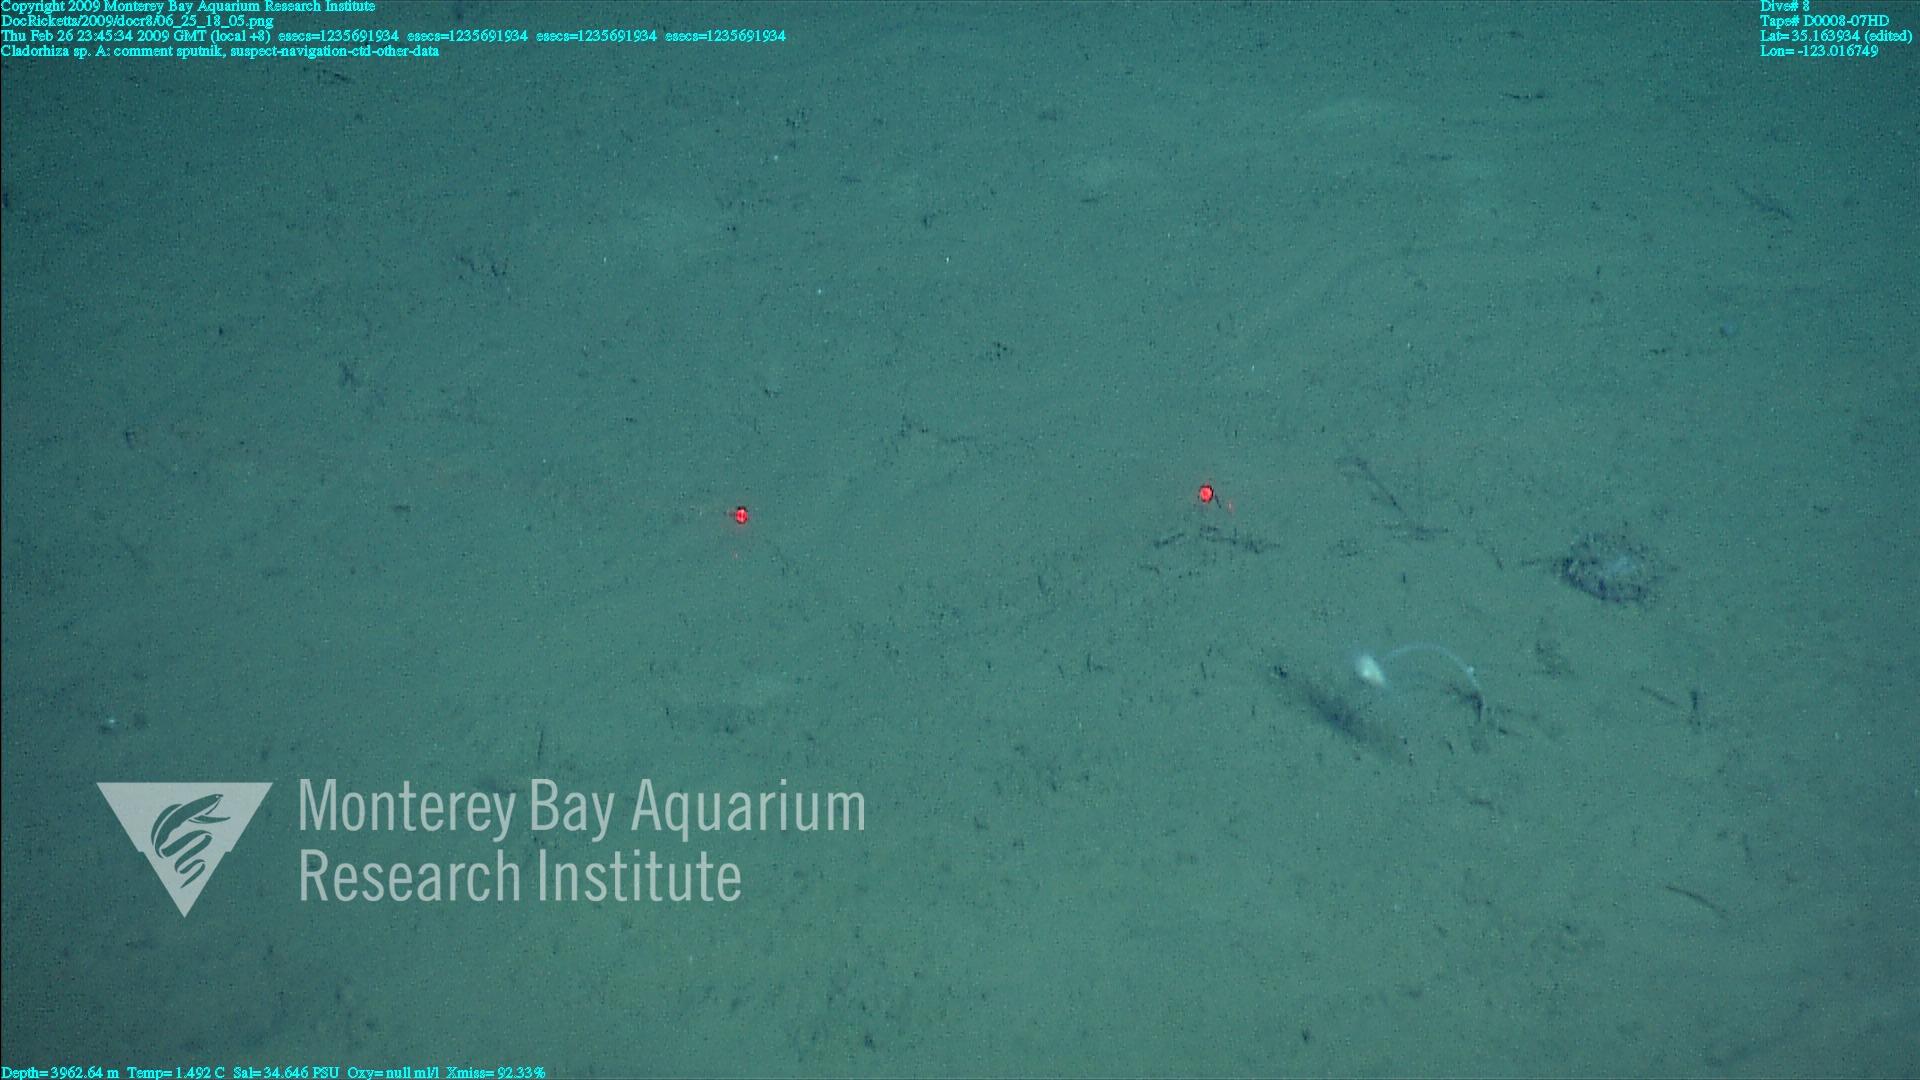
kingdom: Animalia
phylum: Porifera
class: Demospongiae
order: Poecilosclerida
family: Cladorhizidae
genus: Cladorhiza
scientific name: Cladorhiza
